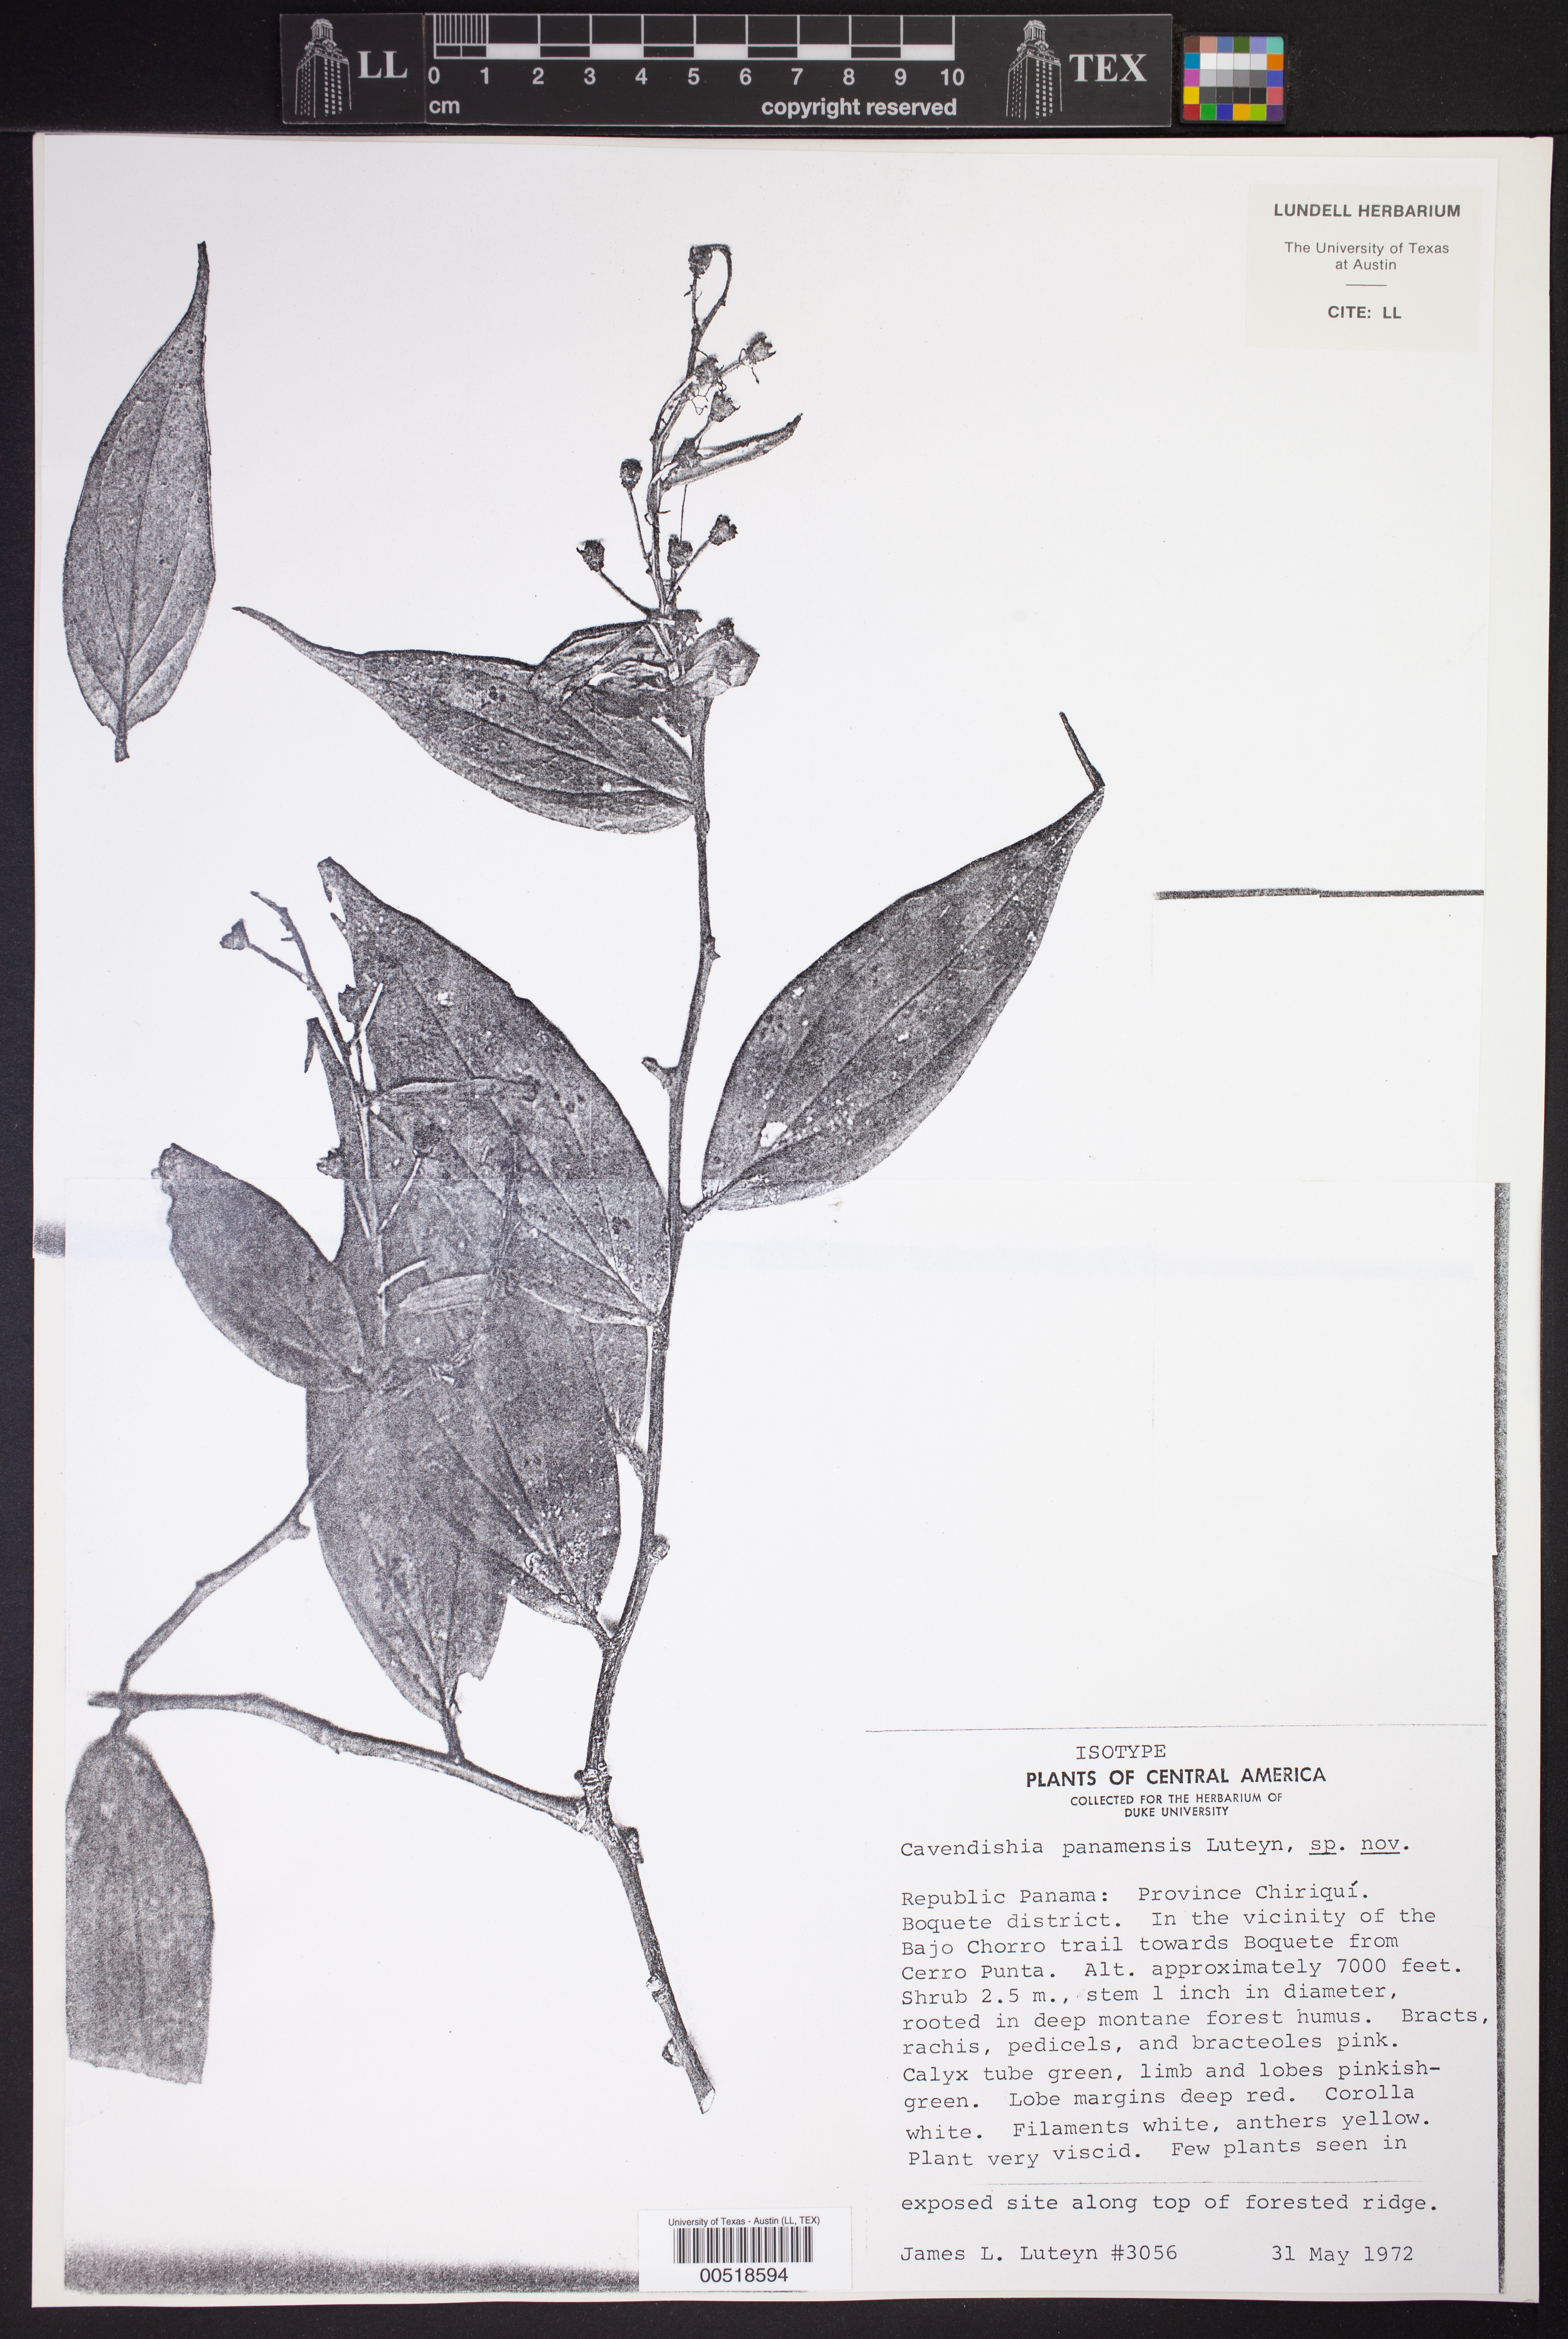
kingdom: Plantae
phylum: Tracheophyta
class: Magnoliopsida
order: Ericales
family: Ericaceae
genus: Cavendishia
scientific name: Cavendishia panamensis
